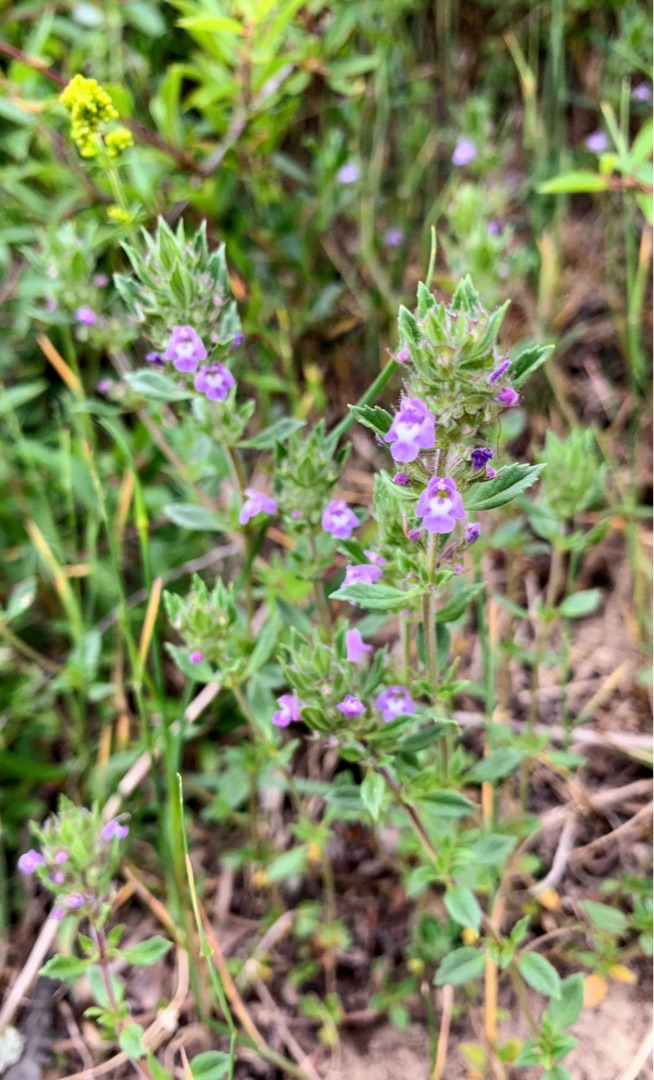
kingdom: Plantae
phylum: Tracheophyta
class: Magnoliopsida
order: Lamiales
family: Lamiaceae
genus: Clinopodium
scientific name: Clinopodium acinos
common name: Voldtimian
